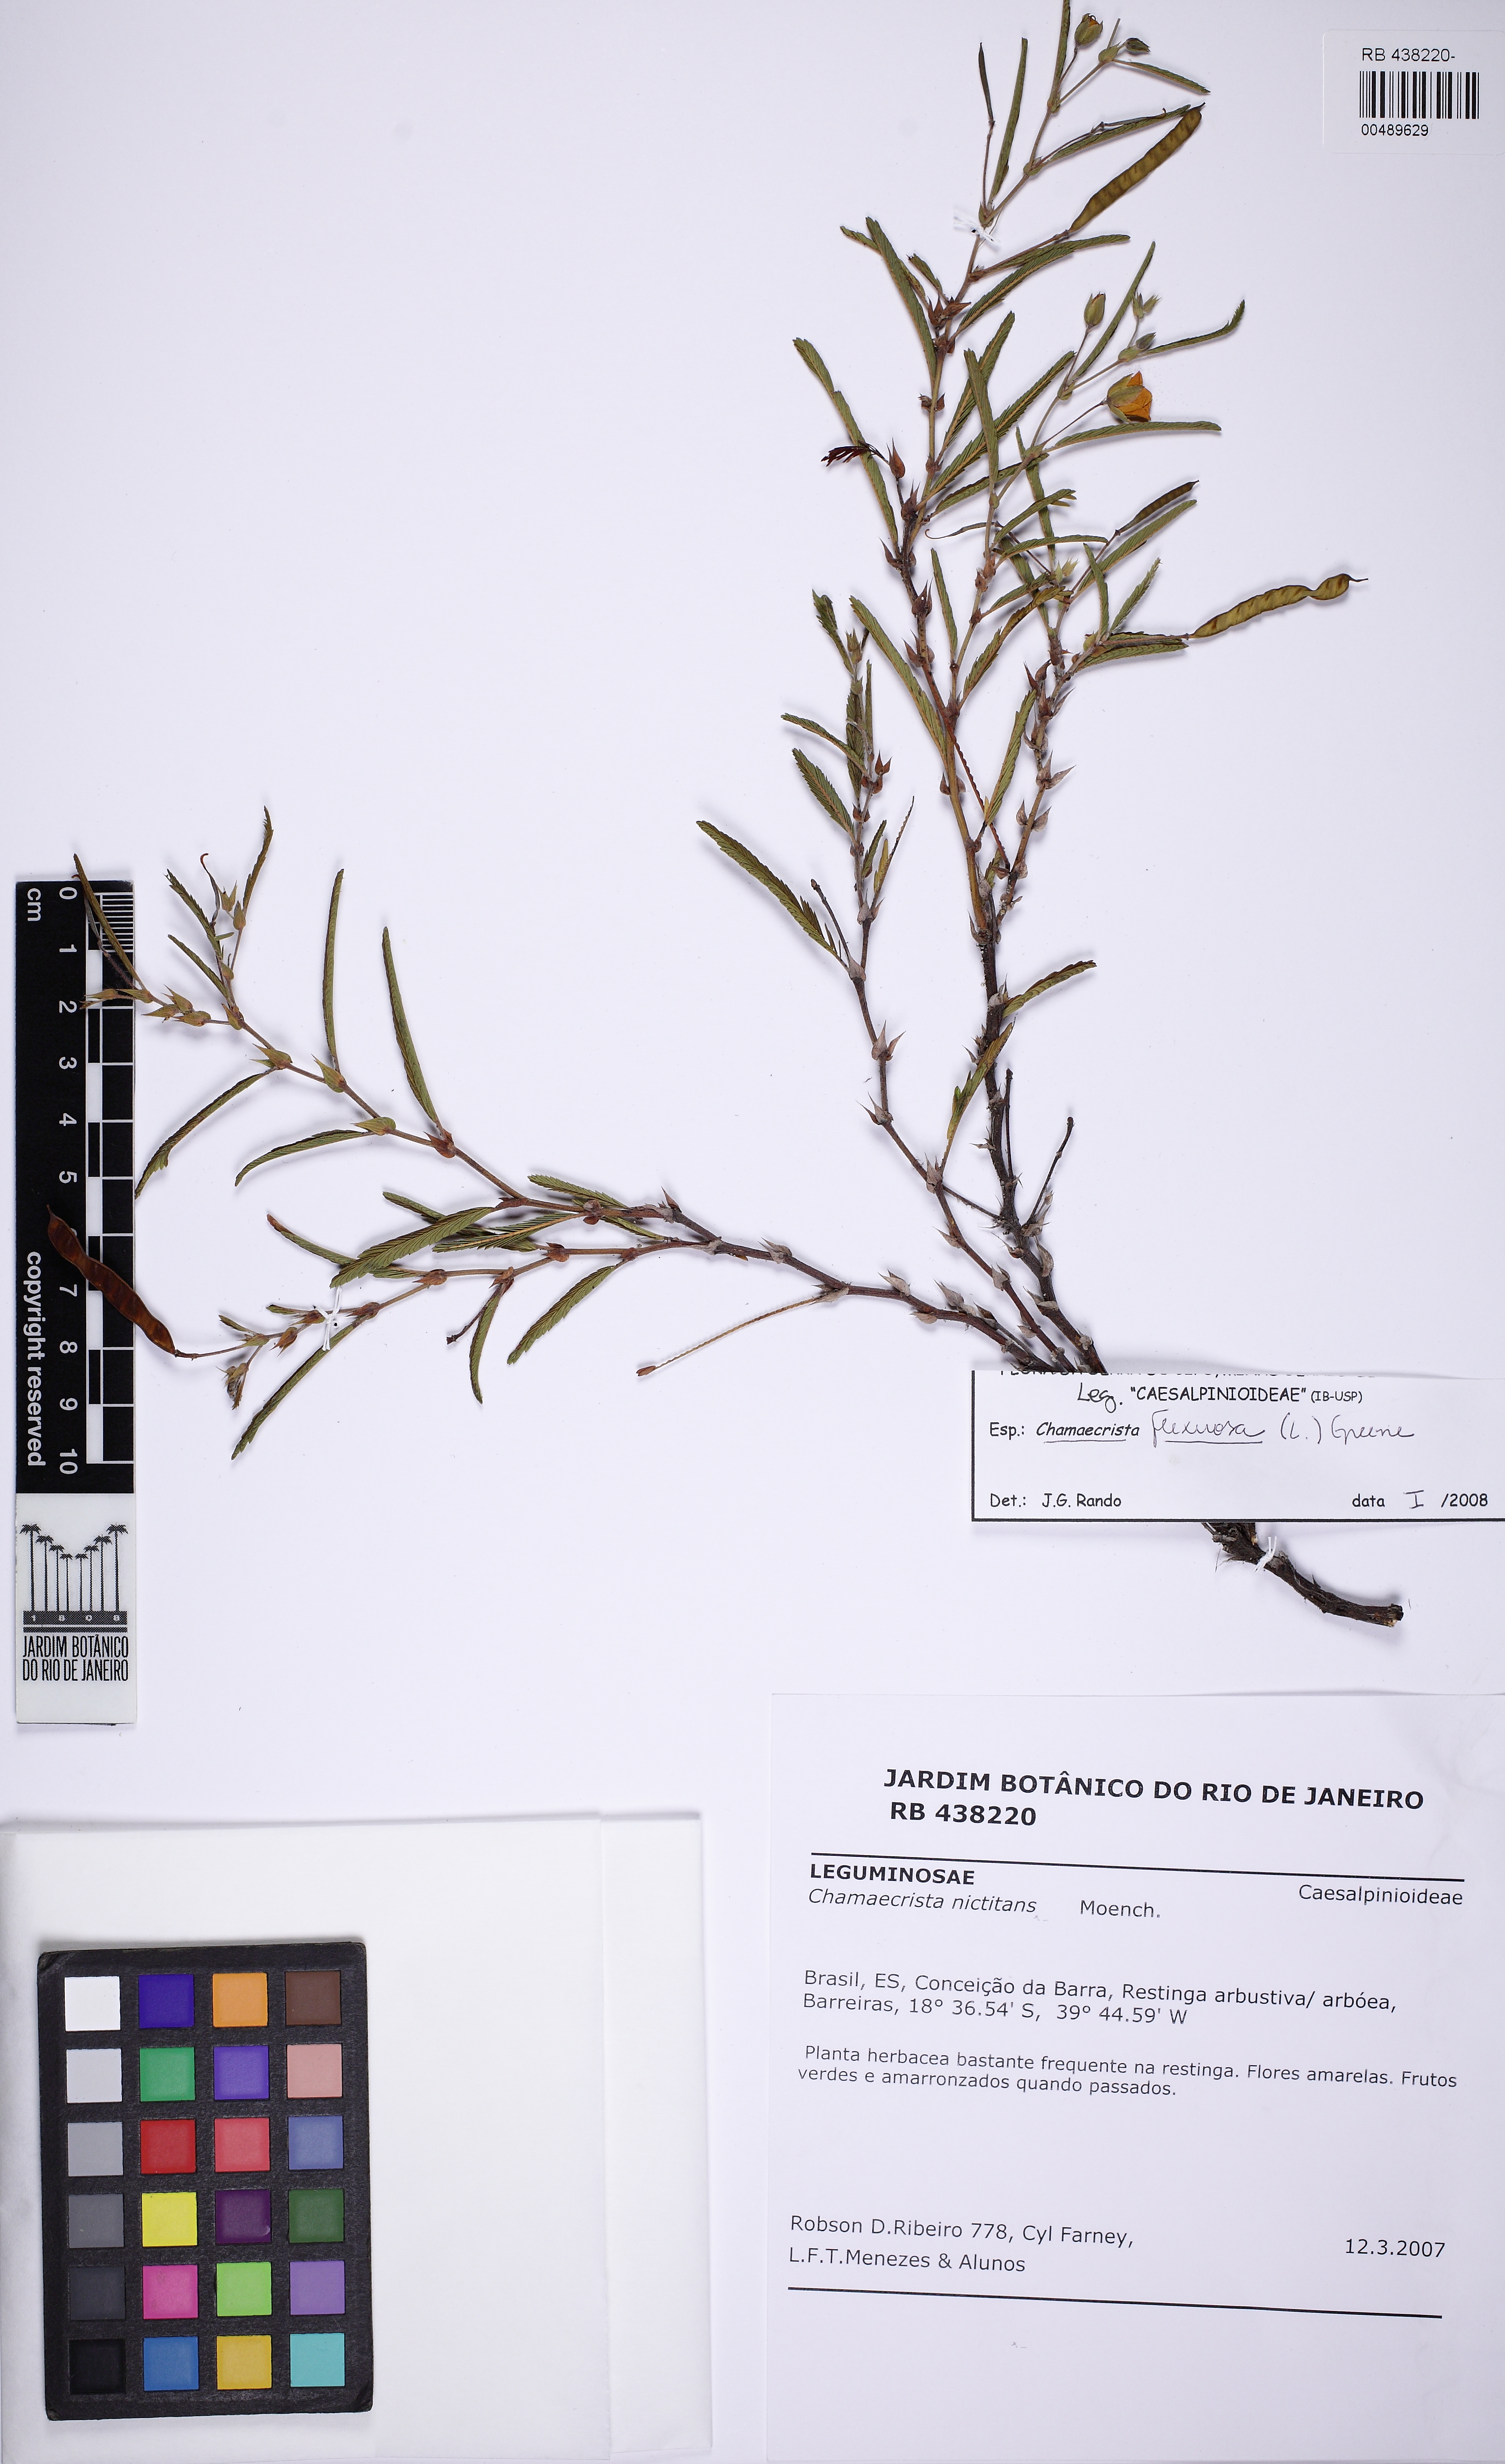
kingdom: Plantae
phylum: Tracheophyta
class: Magnoliopsida
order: Fabales
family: Fabaceae
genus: Chamaecrista
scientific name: Chamaecrista flexuosa
